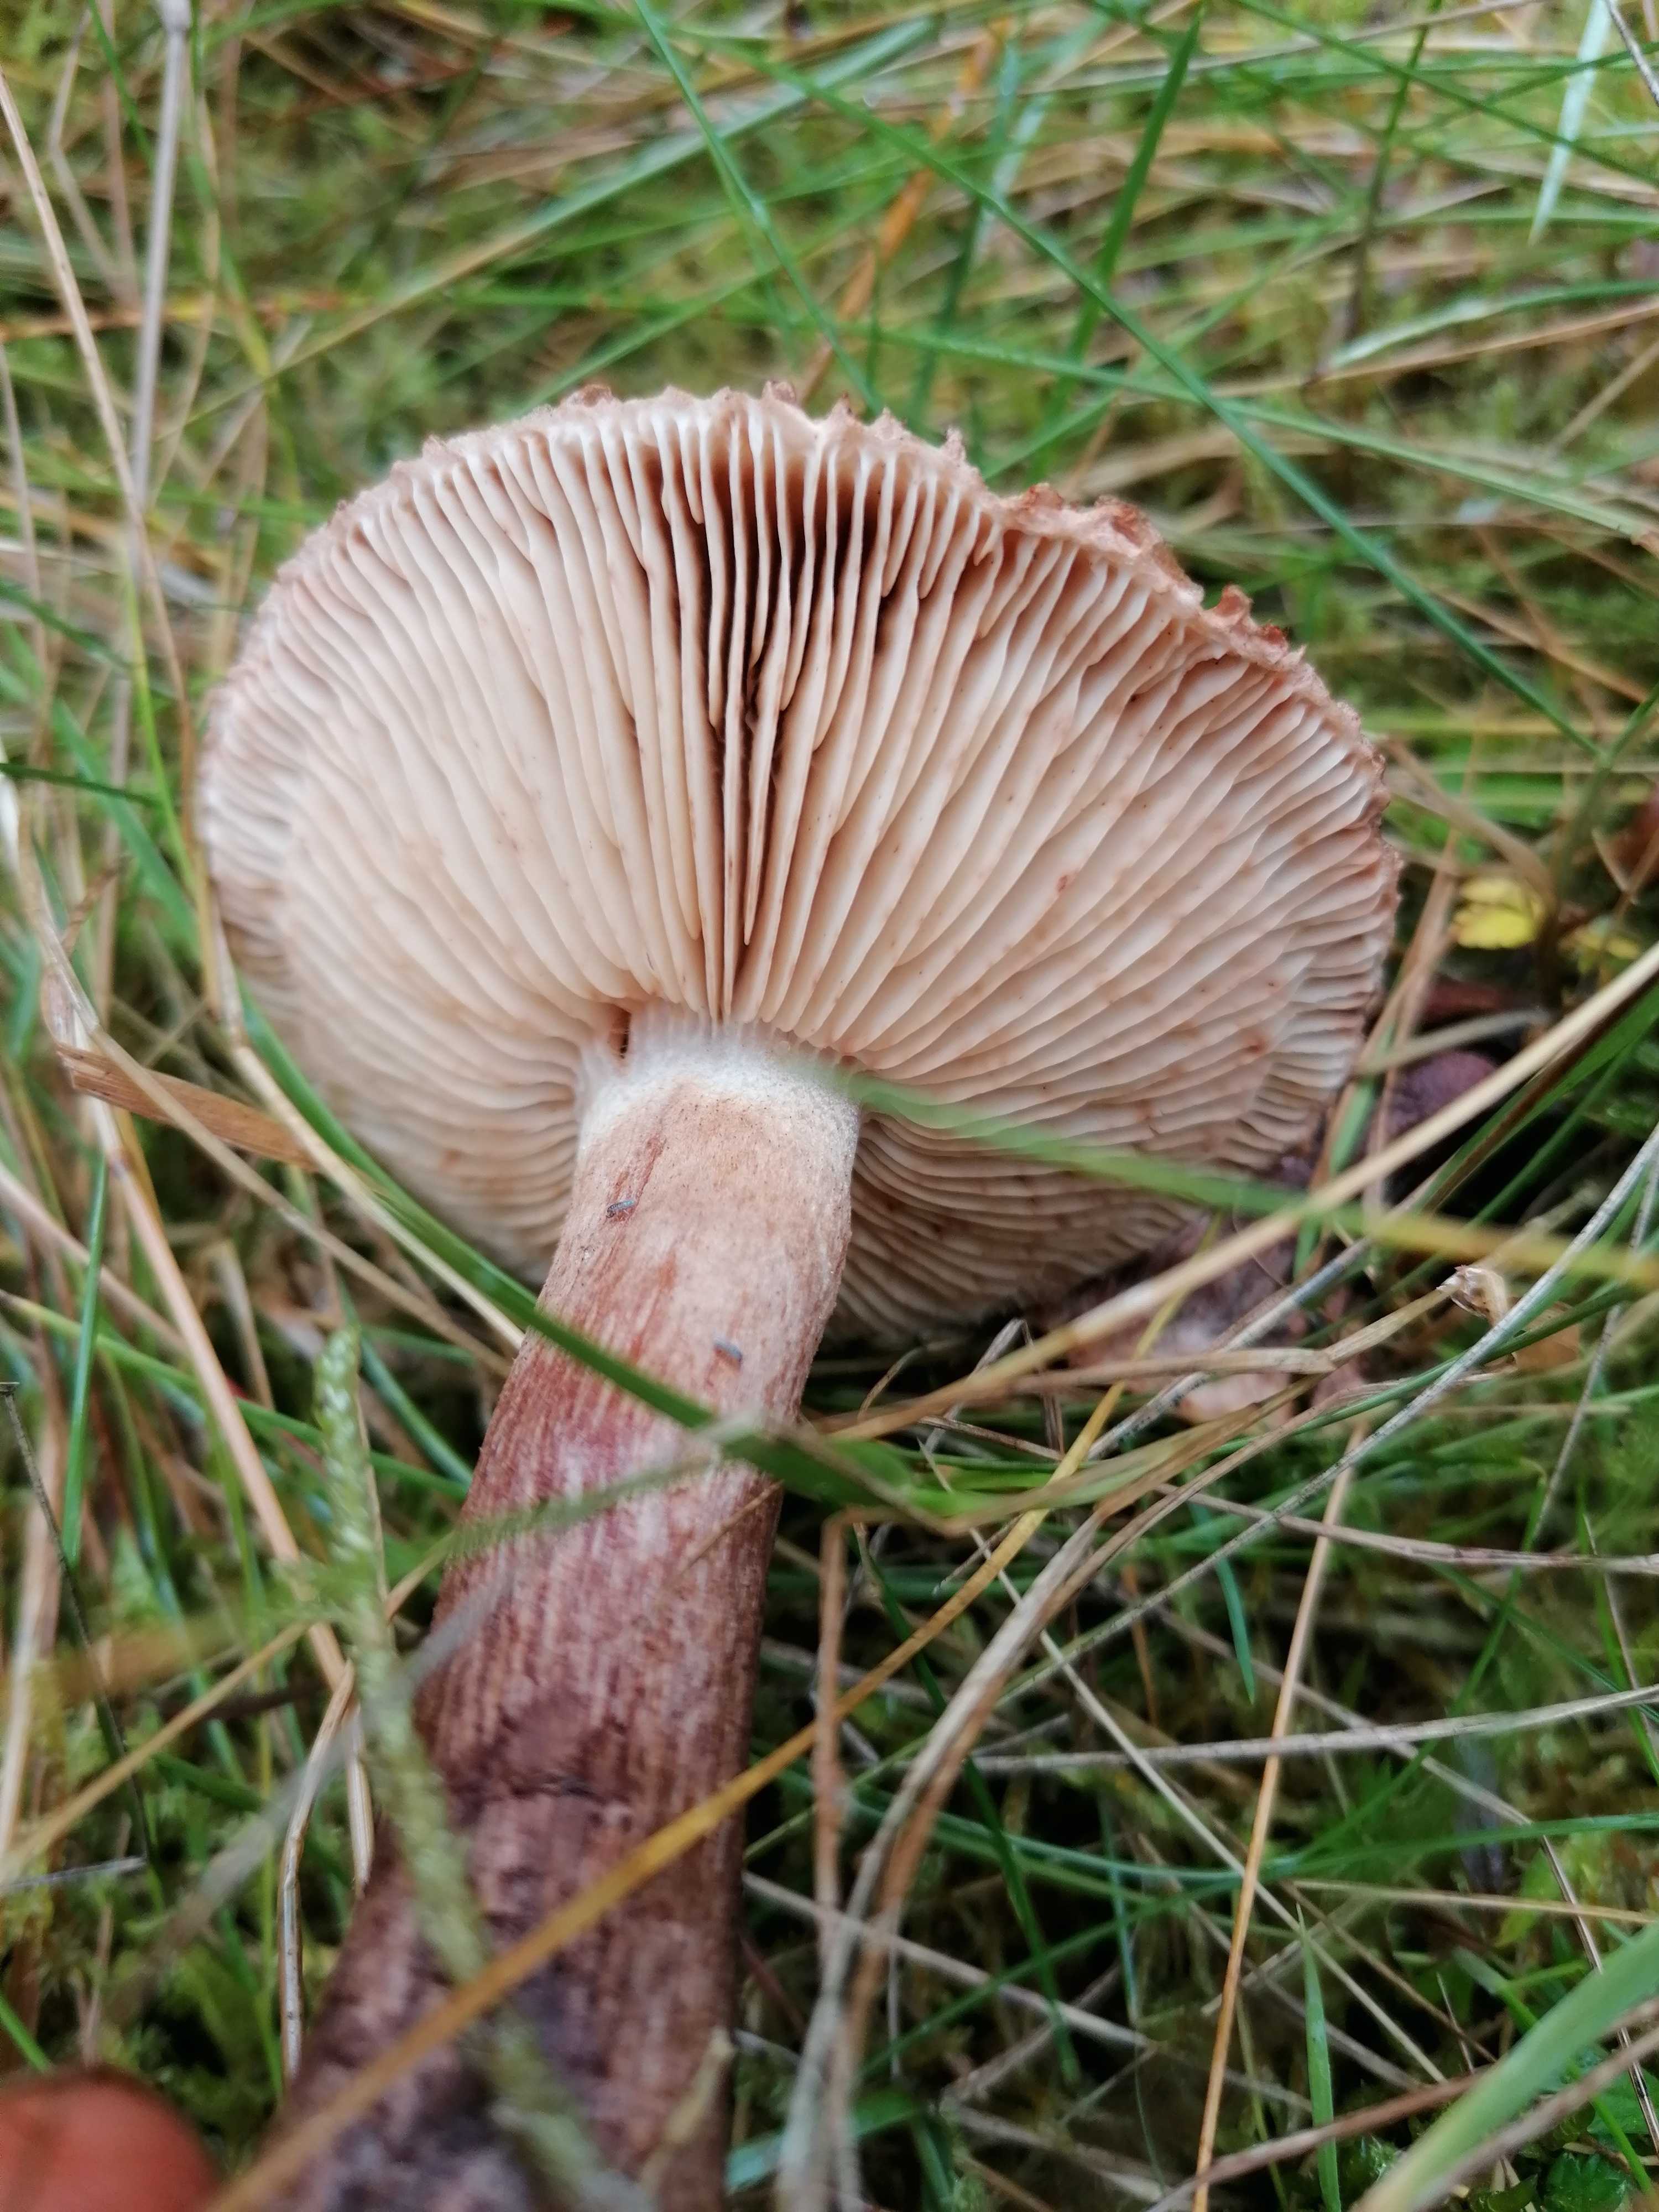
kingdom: Fungi
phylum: Basidiomycota
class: Agaricomycetes
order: Agaricales
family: Tricholomataceae
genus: Tricholoma
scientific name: Tricholoma vaccinum
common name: ko-ridderhat
